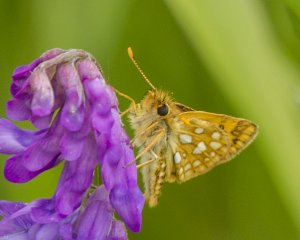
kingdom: Animalia
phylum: Arthropoda
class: Insecta
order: Lepidoptera
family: Hesperiidae
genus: Carterocephalus
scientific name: Carterocephalus palaemon
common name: Chequered Skipper
